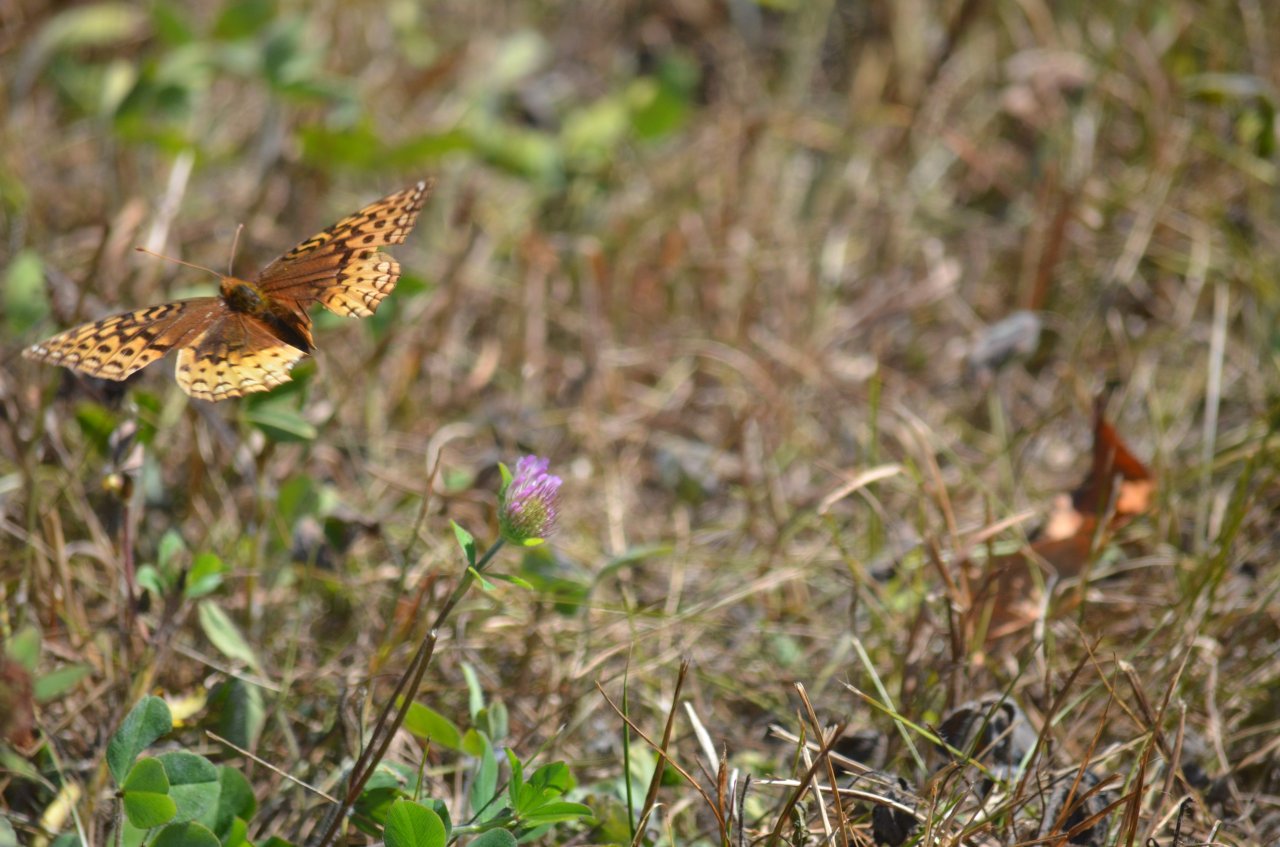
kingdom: Animalia
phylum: Arthropoda
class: Insecta
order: Lepidoptera
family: Nymphalidae
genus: Speyeria
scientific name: Speyeria cybele
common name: Great Spangled Fritillary
